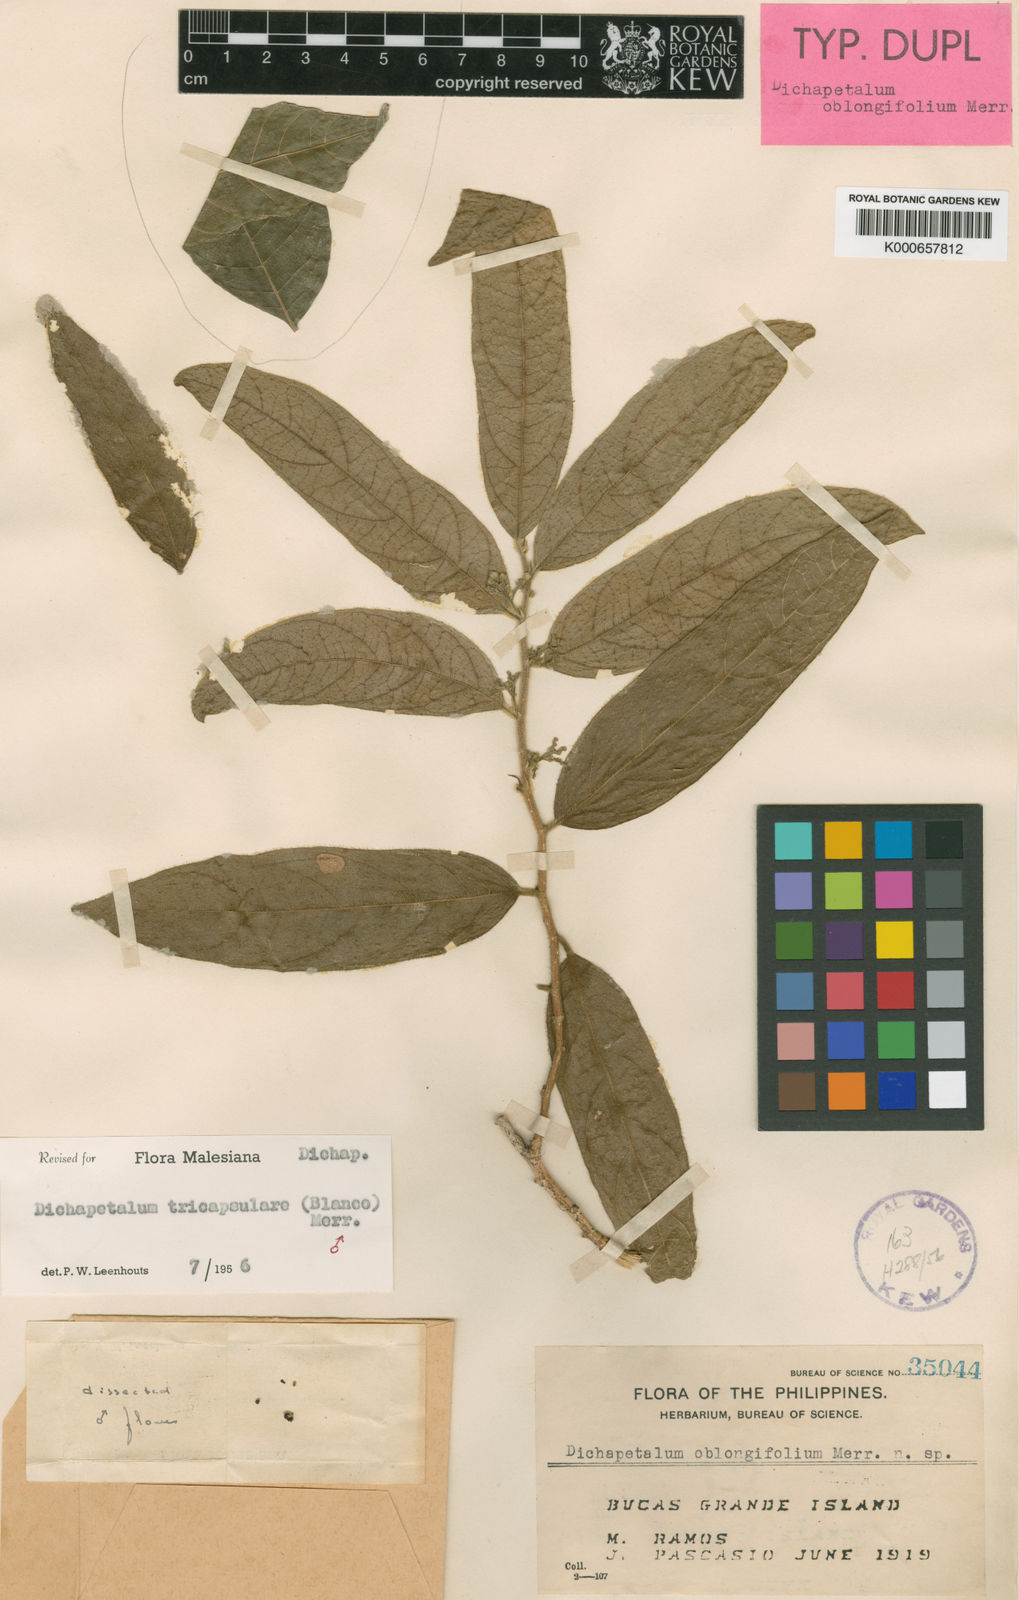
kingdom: Plantae
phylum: Tracheophyta
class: Magnoliopsida
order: Malpighiales
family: Dichapetalaceae
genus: Dichapetalum
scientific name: Dichapetalum tricapsulare
